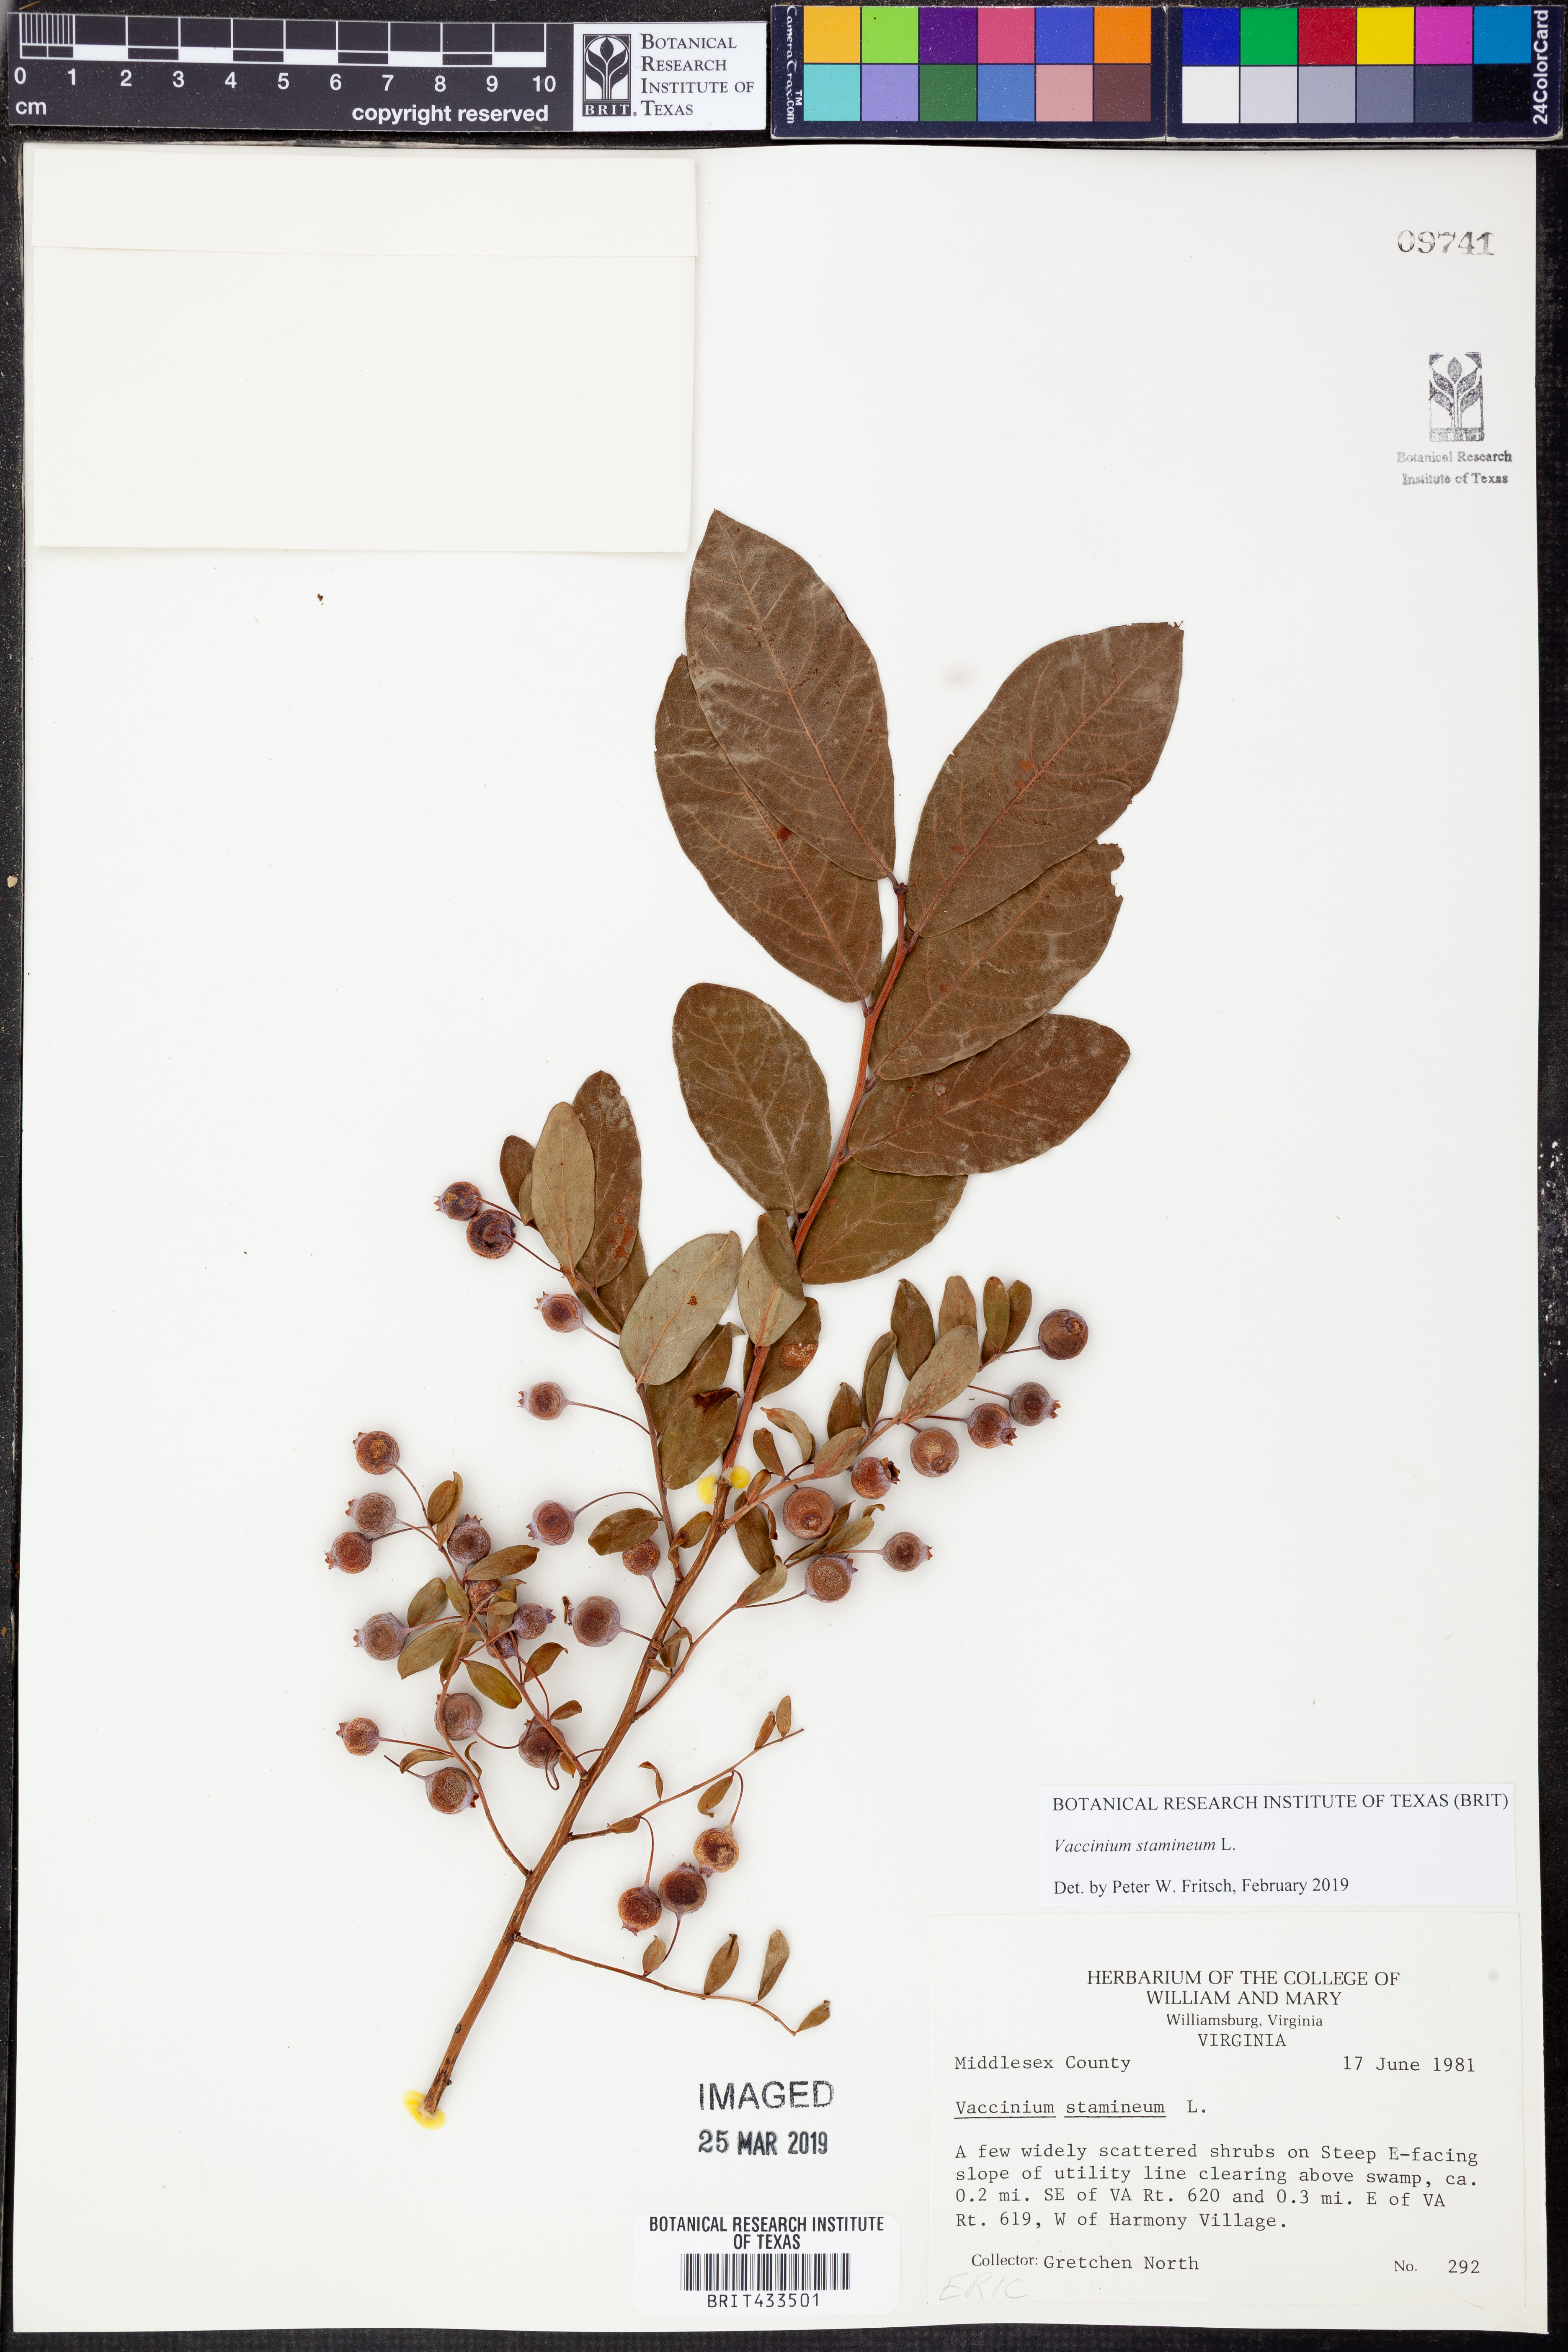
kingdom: Plantae
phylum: Tracheophyta
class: Magnoliopsida
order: Ericales
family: Ericaceae
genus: Vaccinium
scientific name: Vaccinium stamineum
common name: Deerberry
